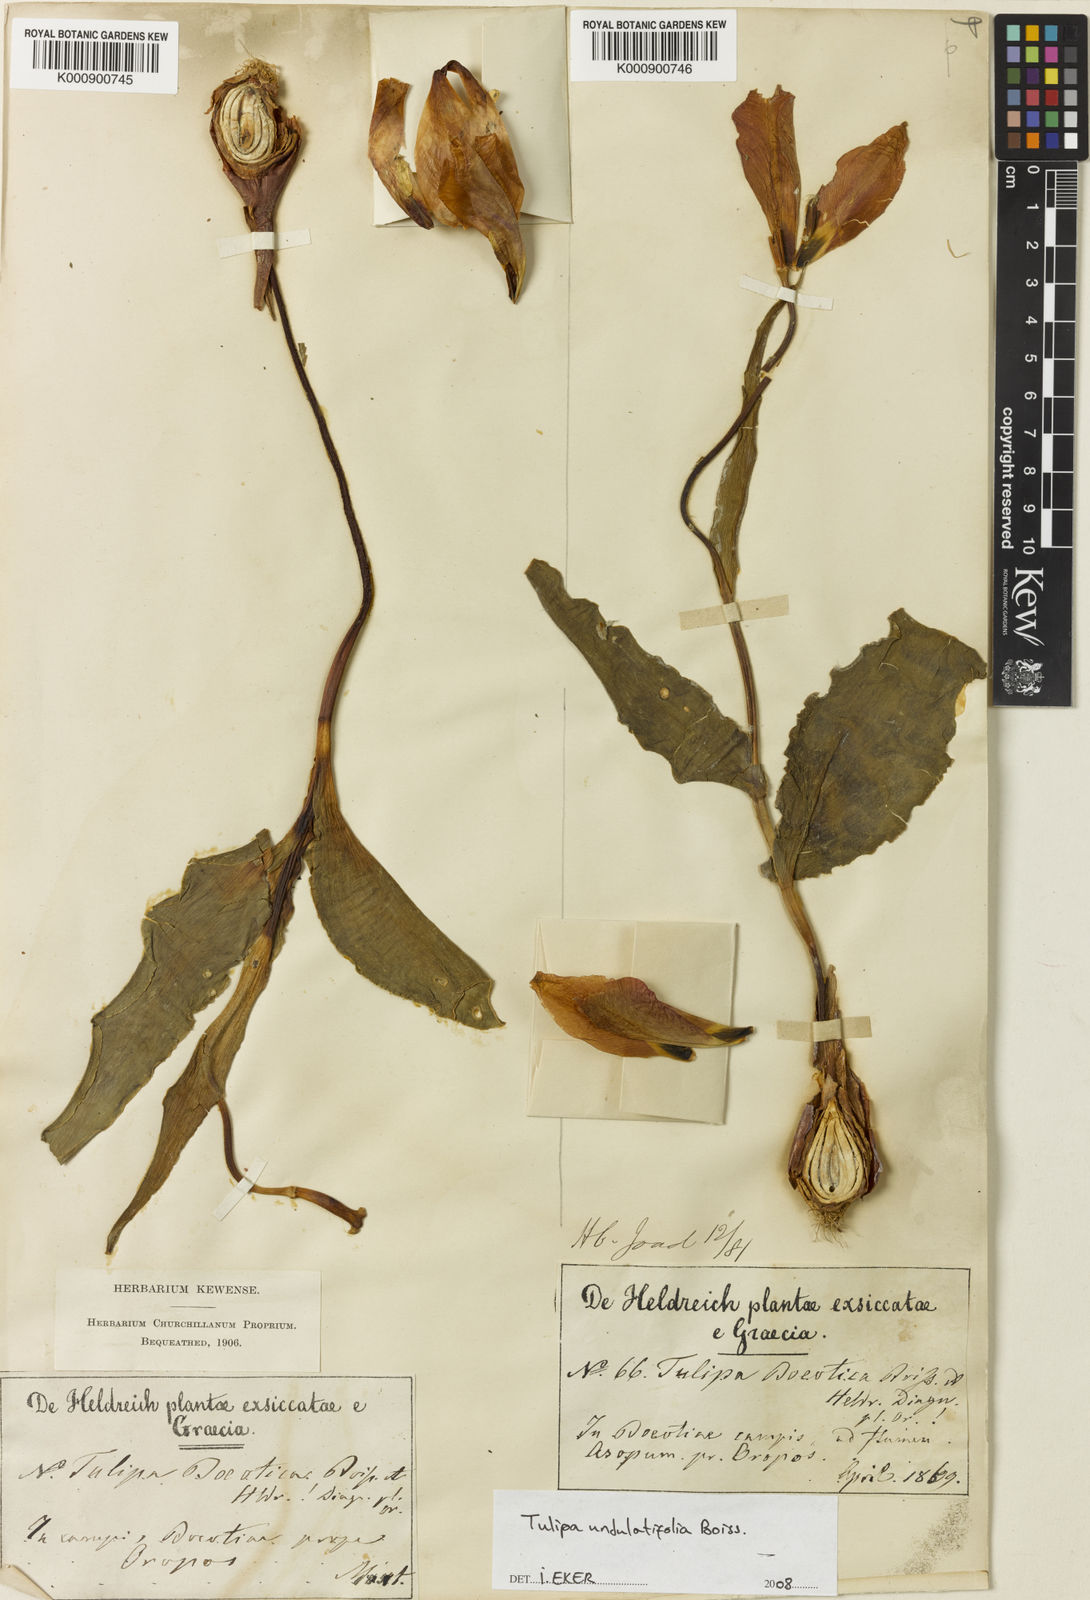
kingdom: Plantae
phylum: Tracheophyta
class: Liliopsida
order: Liliales
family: Liliaceae
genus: Tulipa
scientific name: Tulipa undulatifolia
